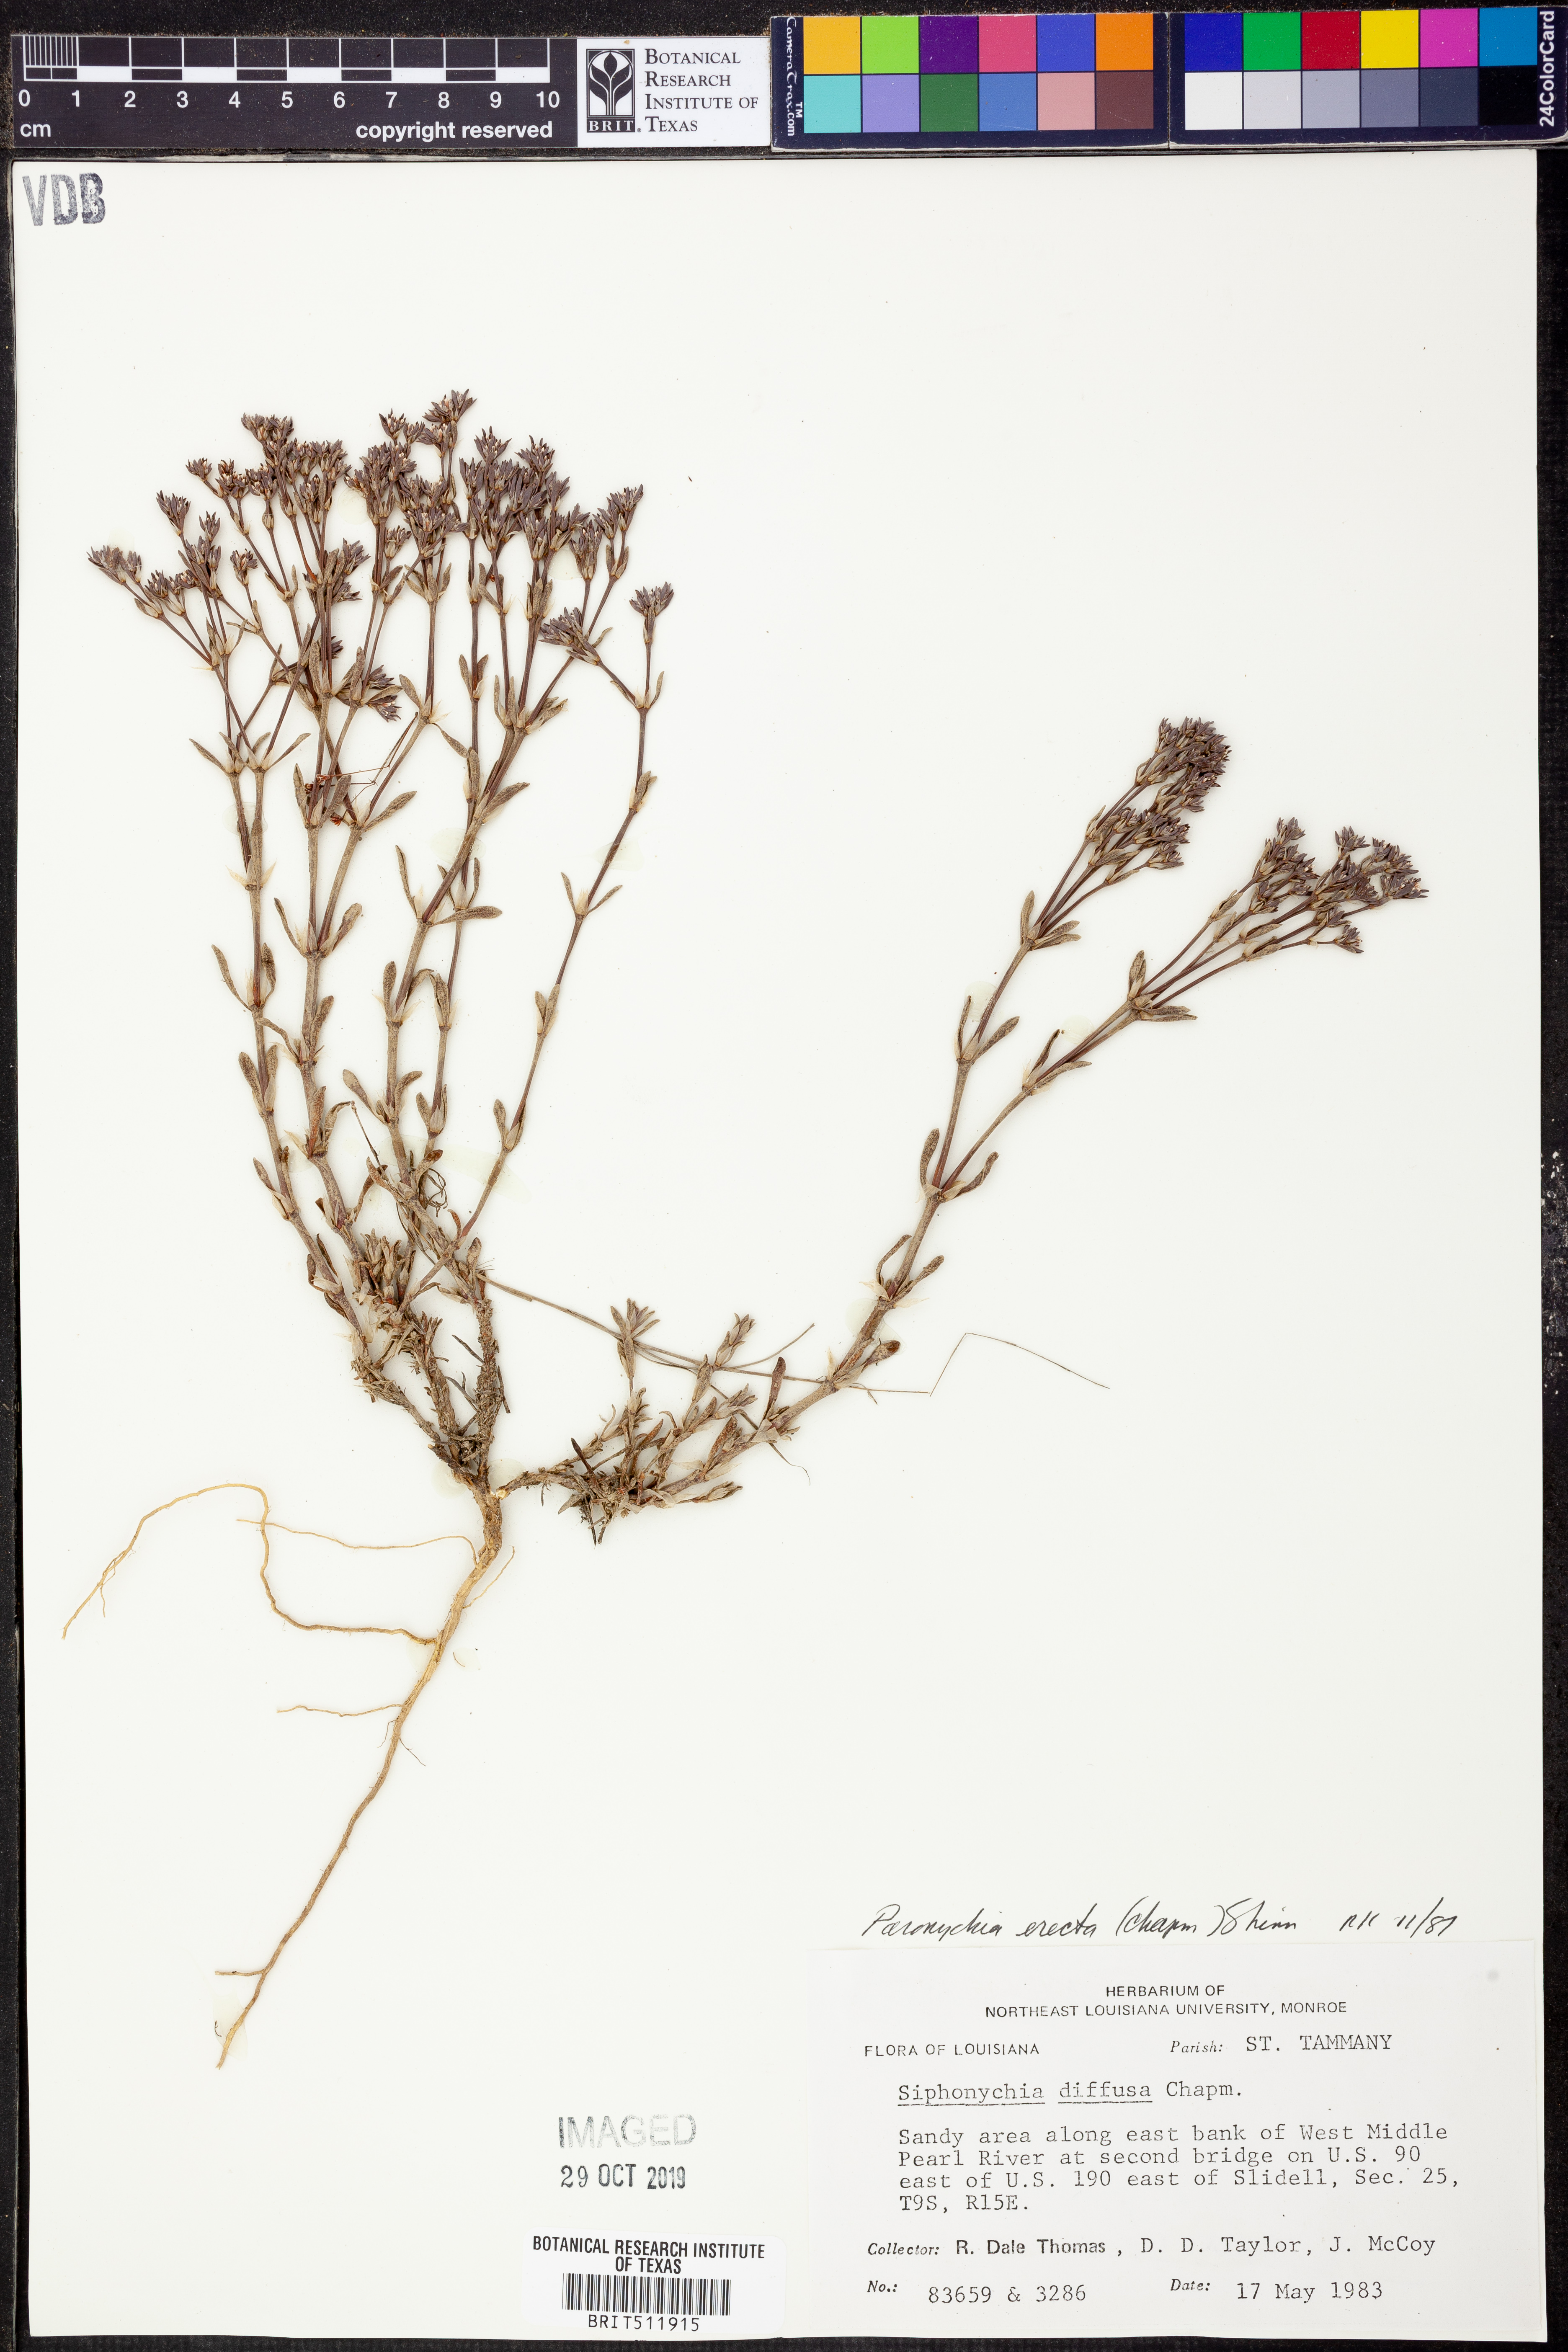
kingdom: Plantae
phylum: Tracheophyta
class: Magnoliopsida
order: Caryophyllales
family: Caryophyllaceae
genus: Paronychia
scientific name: Paronychia erecta
